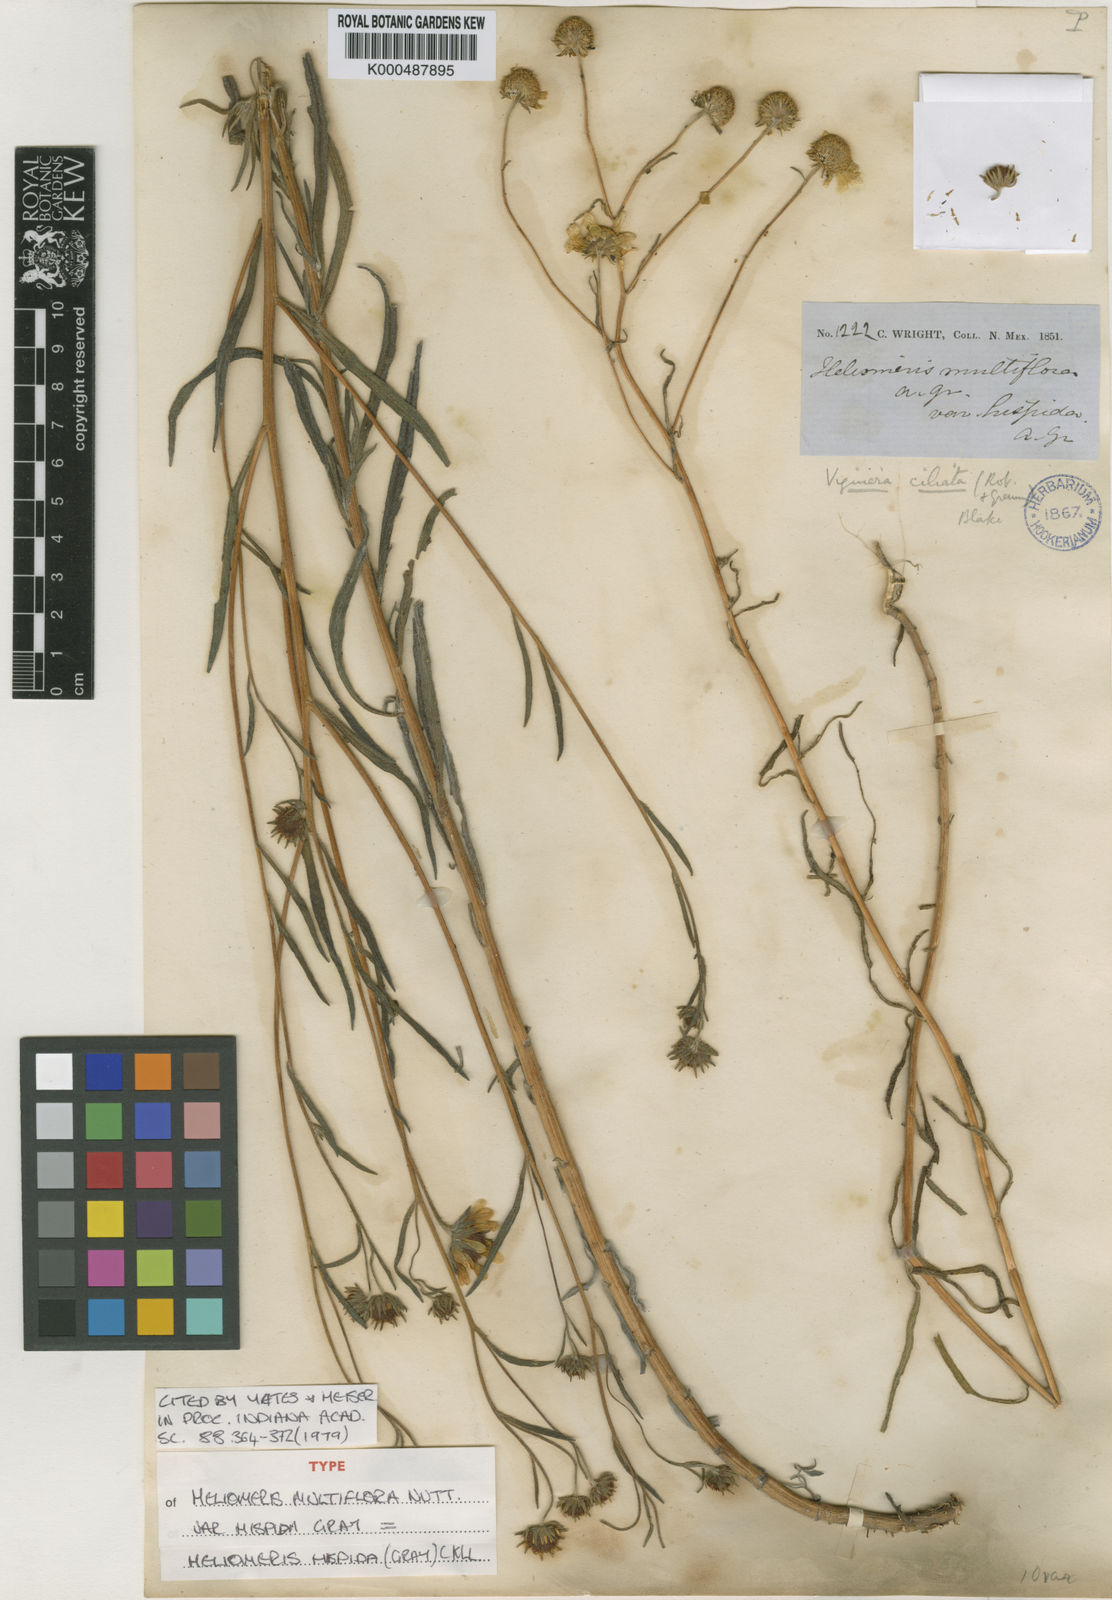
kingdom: Plantae
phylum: Tracheophyta
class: Magnoliopsida
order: Asterales
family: Asteraceae
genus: Heliomeris
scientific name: Heliomeris hispida
